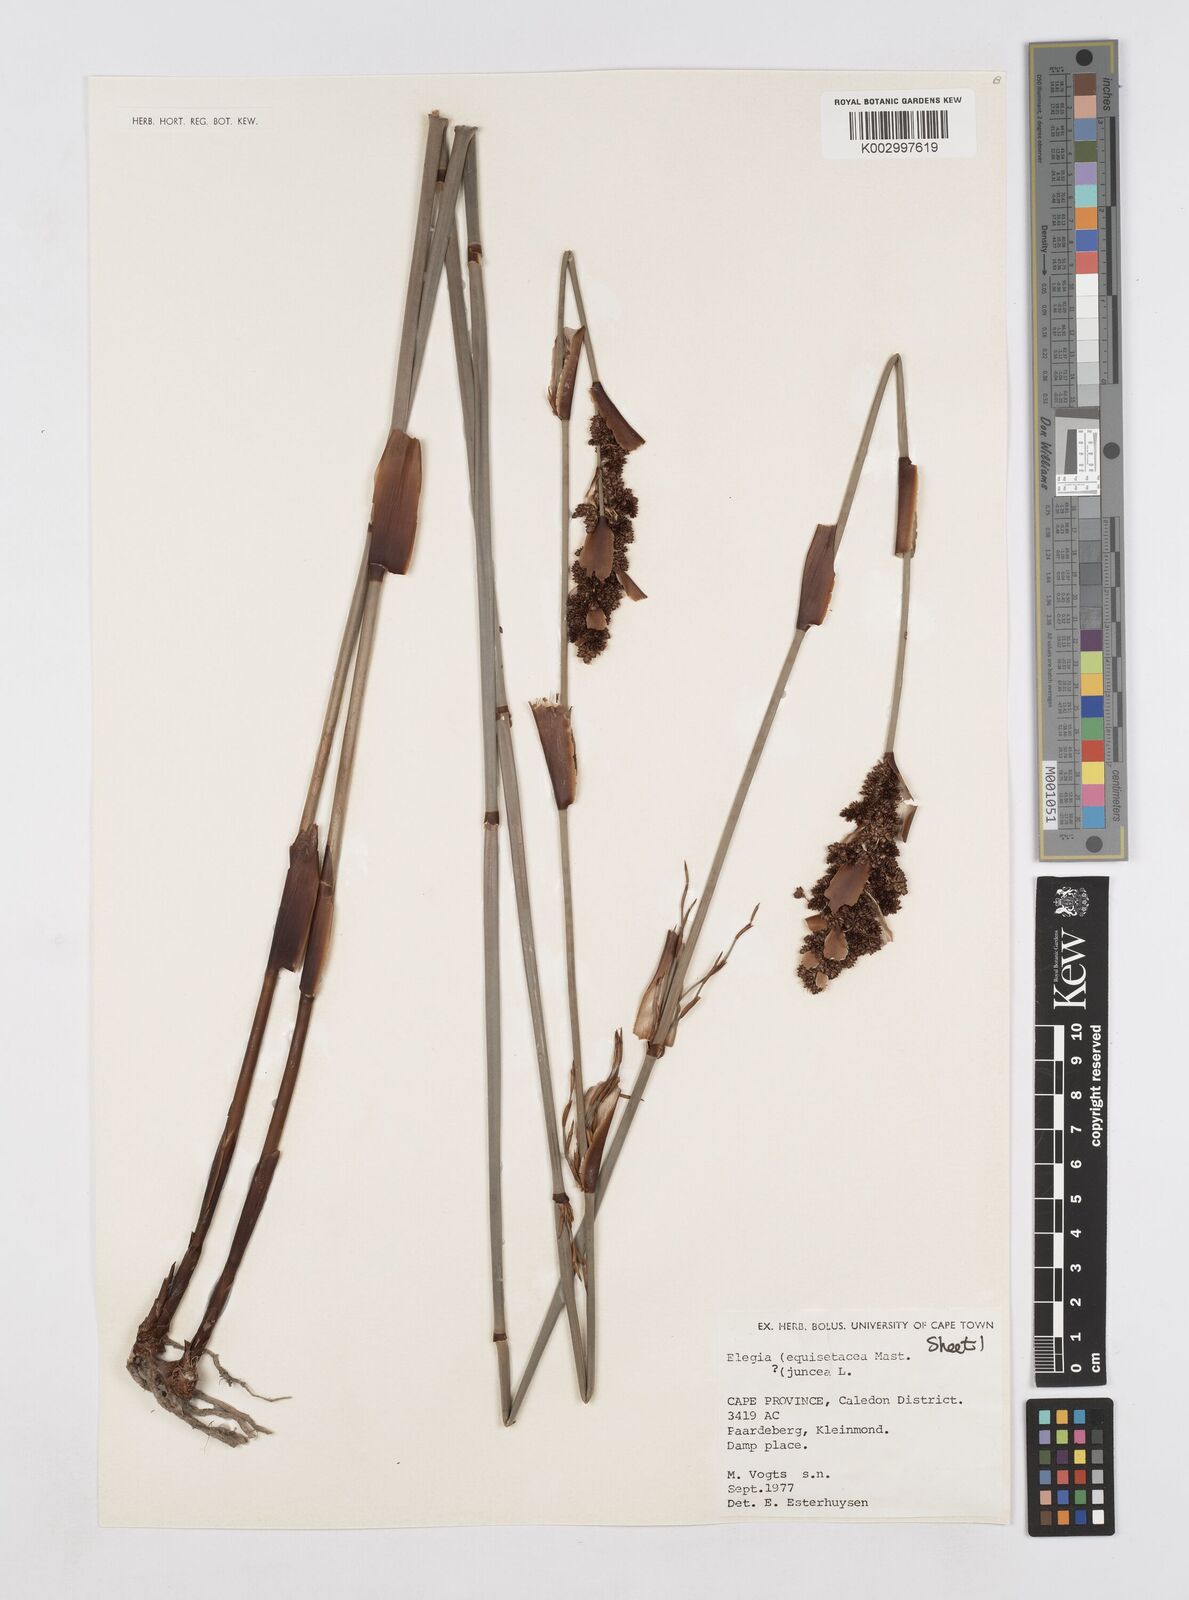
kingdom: Plantae
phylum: Tracheophyta
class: Liliopsida
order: Poales
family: Restionaceae
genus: Elegia
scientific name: Elegia equisetacea
